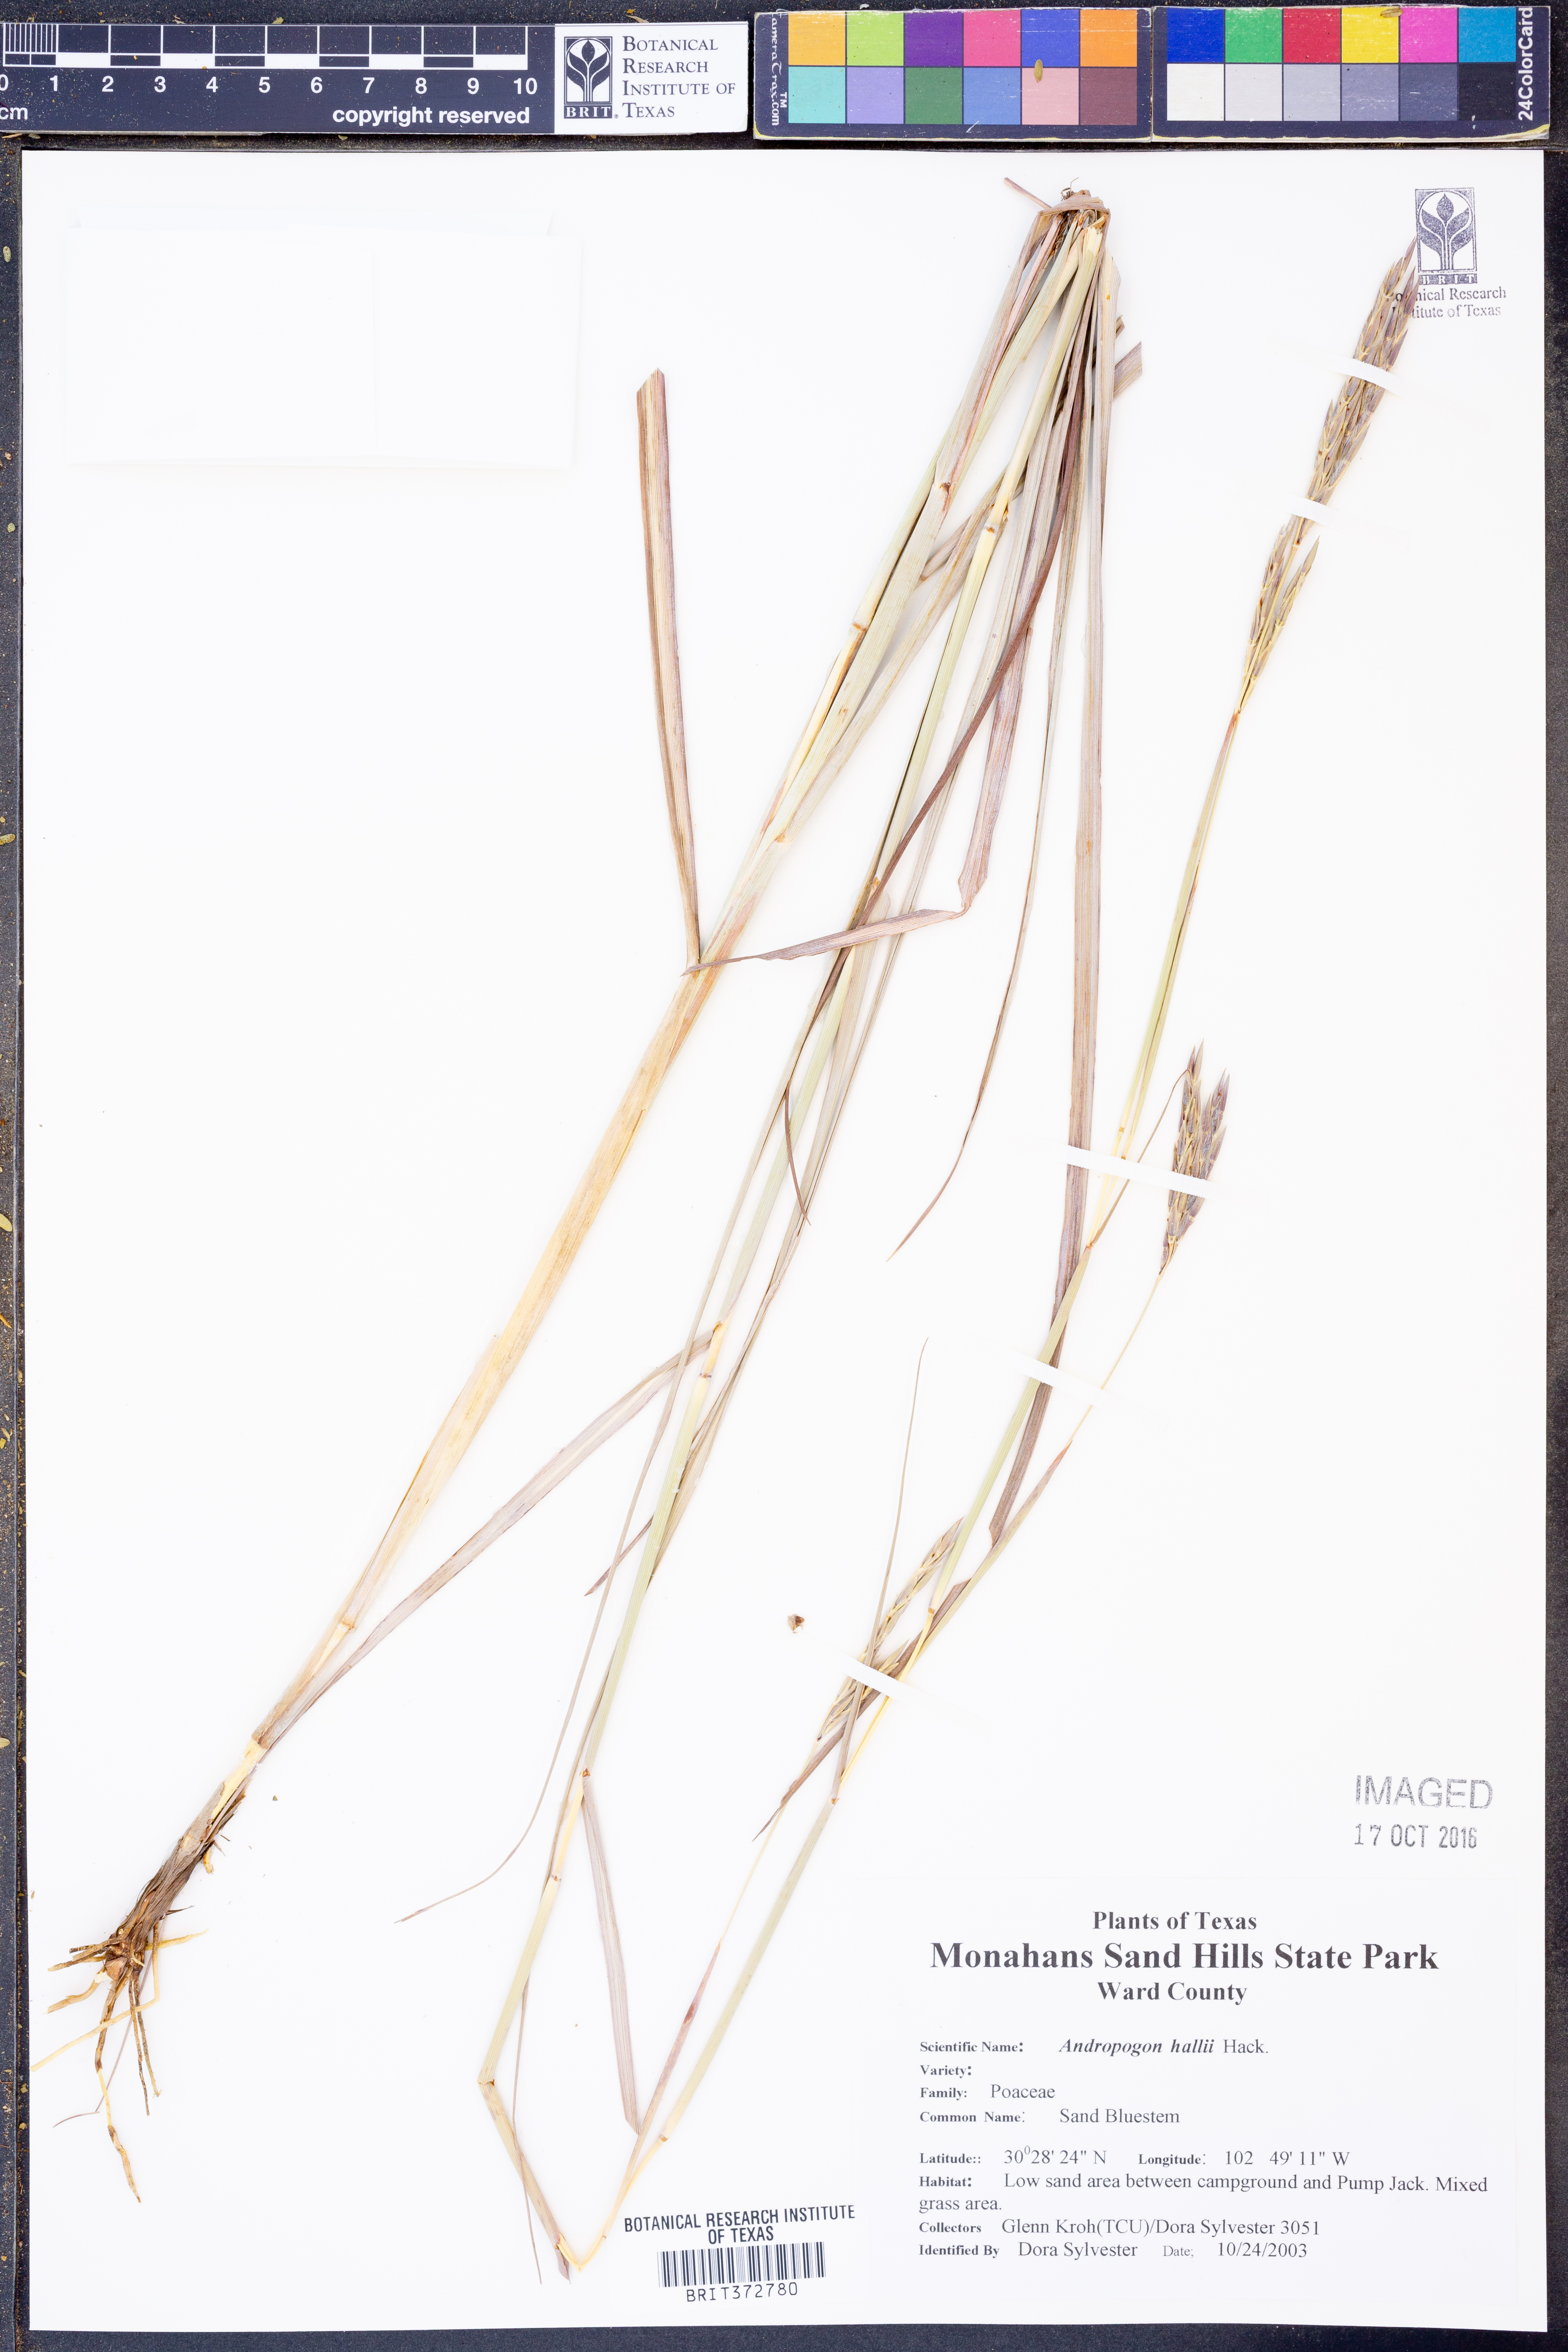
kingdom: Plantae
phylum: Tracheophyta
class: Liliopsida
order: Poales
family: Poaceae
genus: Andropogon
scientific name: Andropogon hallii
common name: Sand bluestem
